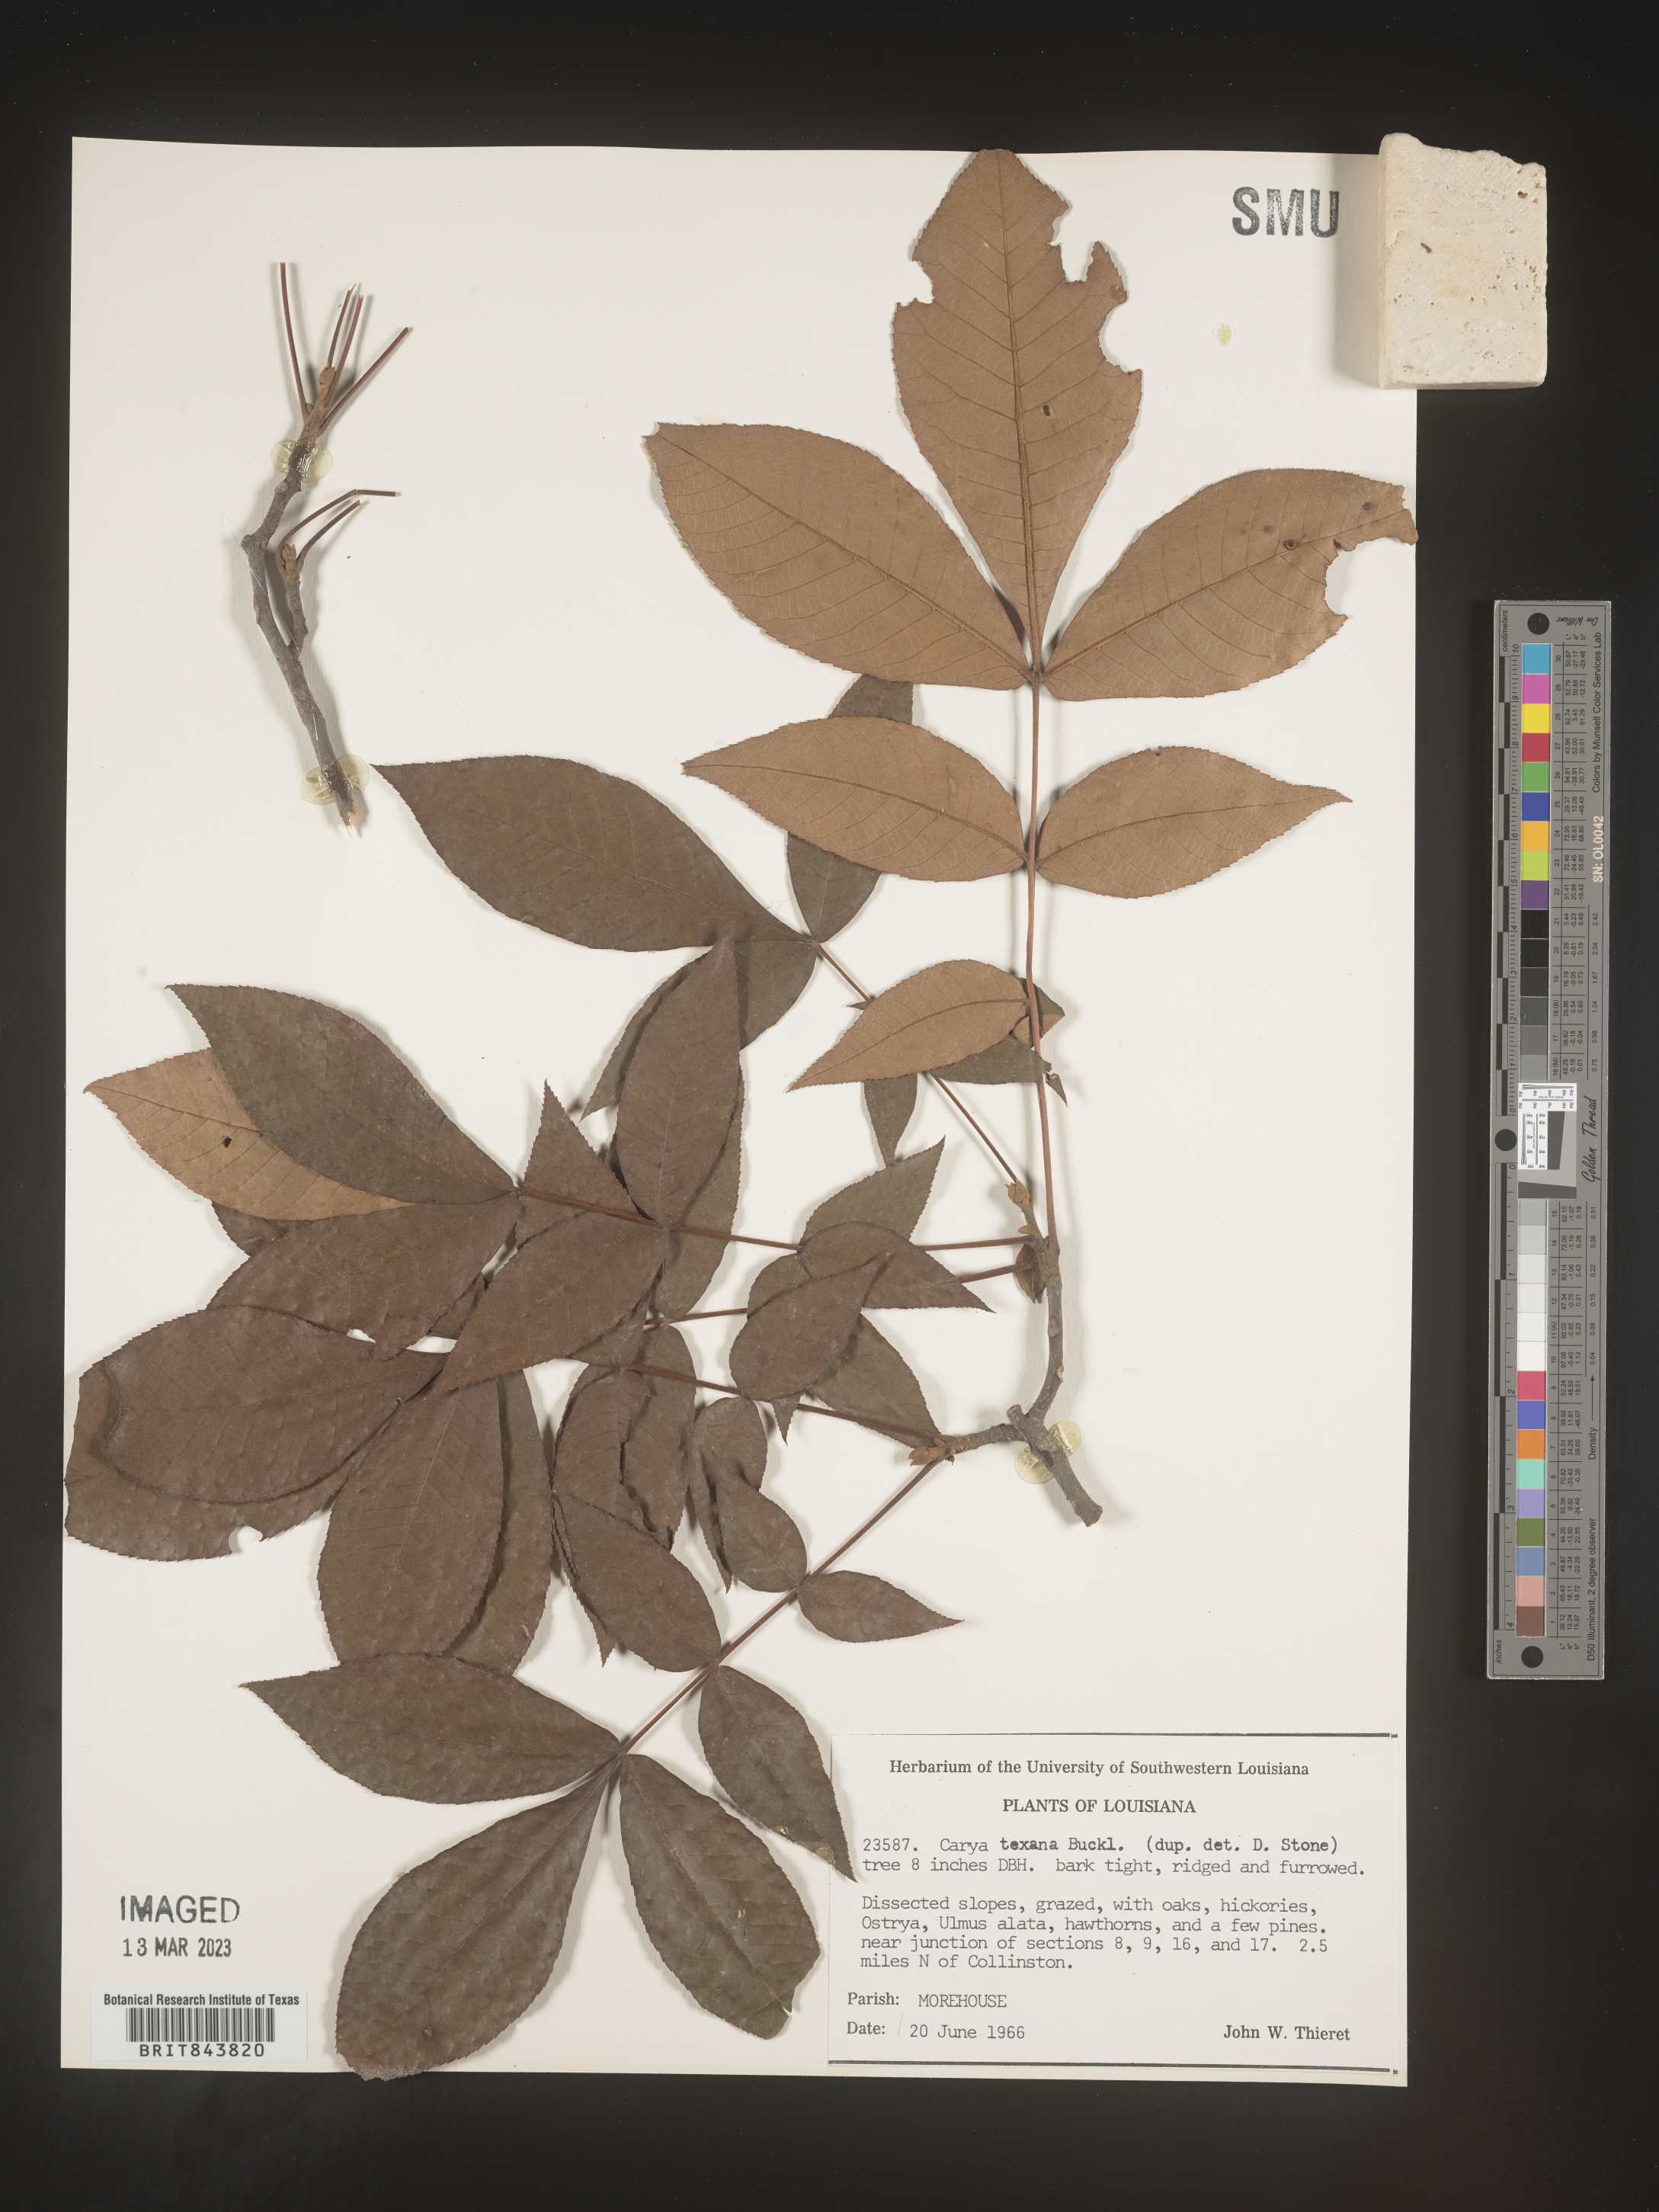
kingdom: Plantae
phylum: Tracheophyta
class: Magnoliopsida
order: Fagales
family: Juglandaceae
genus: Carya
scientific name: Carya texana
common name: Black hickory
